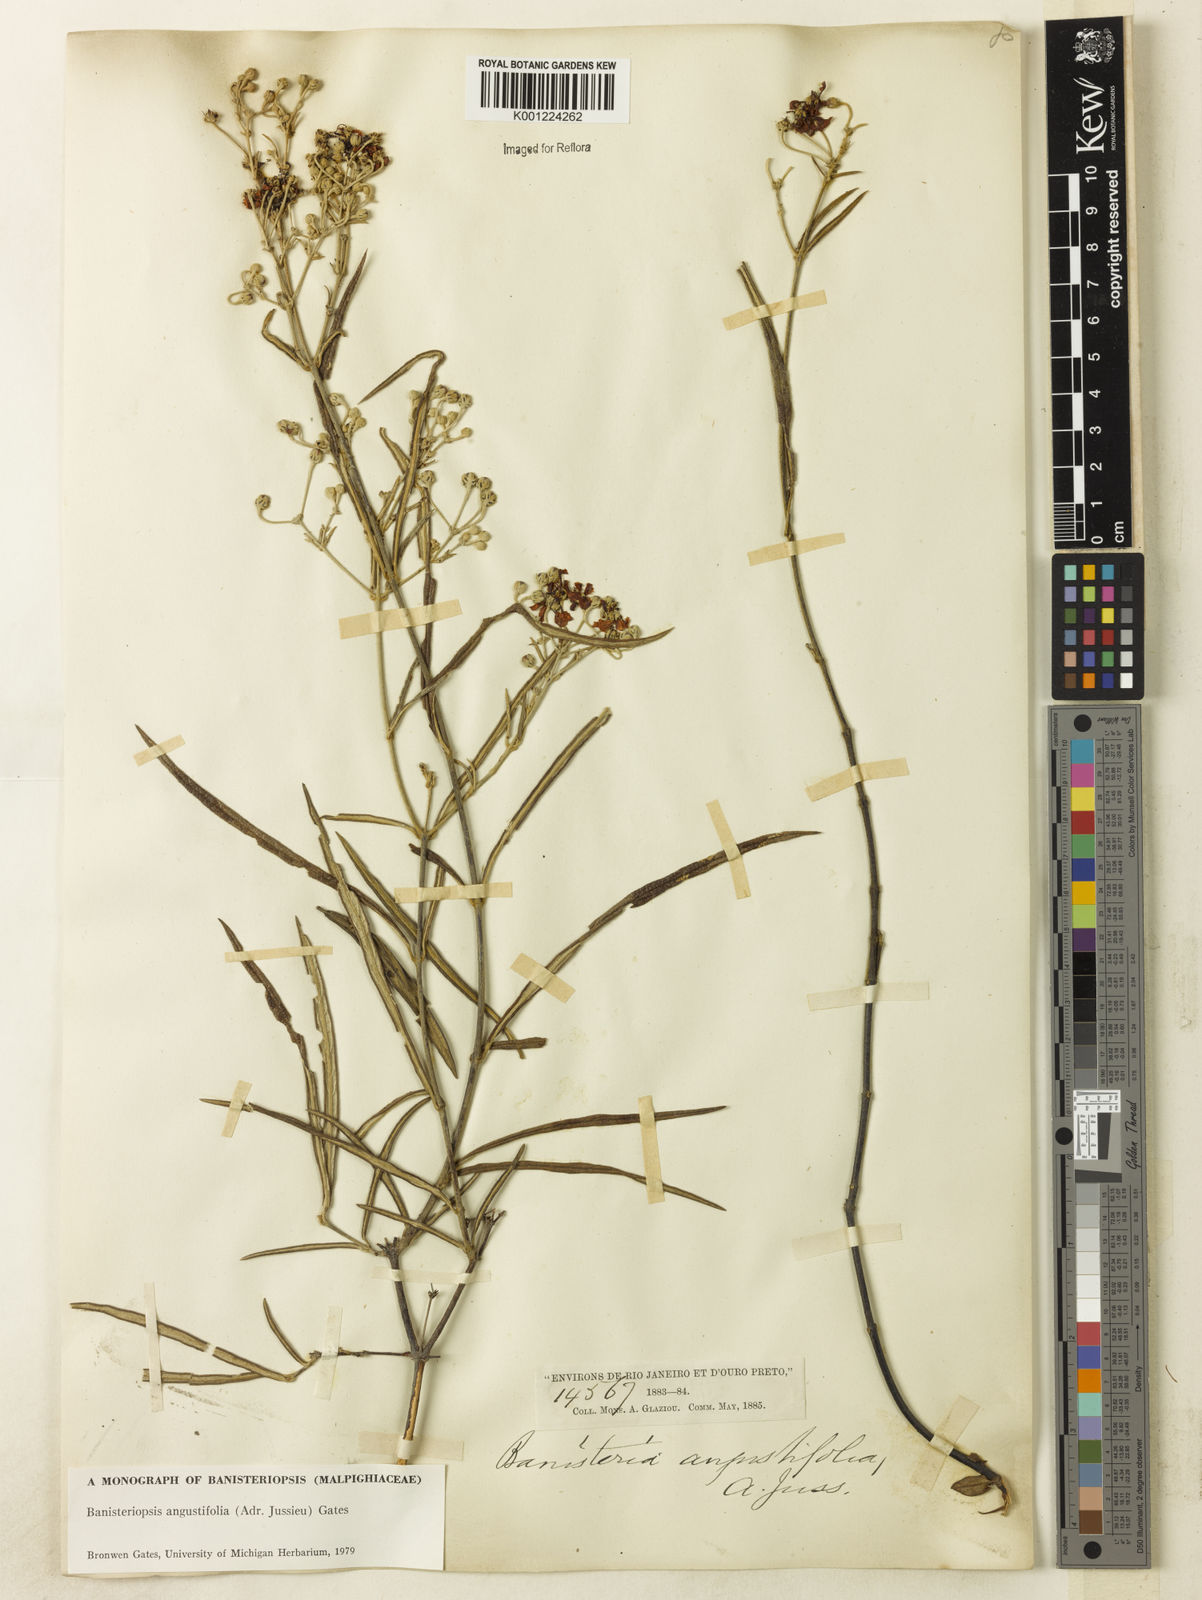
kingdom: Plantae
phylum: Tracheophyta
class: Magnoliopsida
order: Malpighiales
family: Malpighiaceae
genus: Banisteriopsis
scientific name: Banisteriopsis angustifolia
